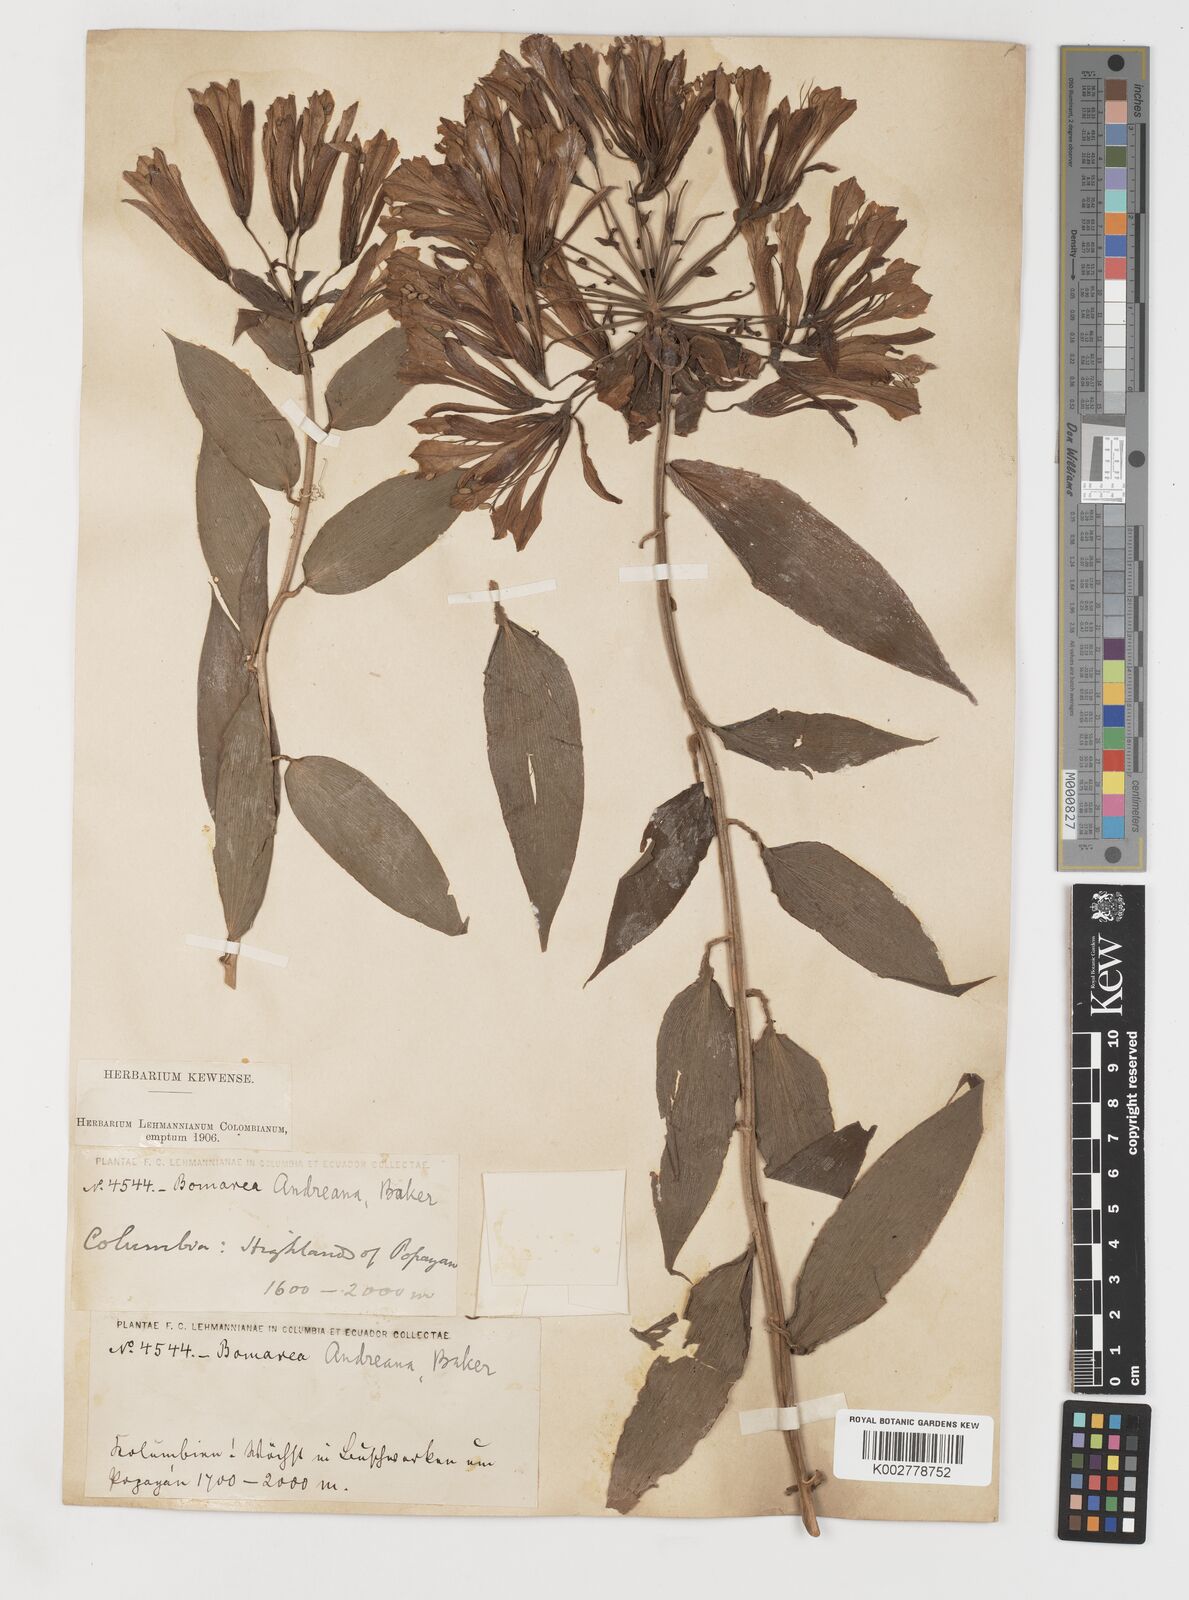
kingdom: Plantae
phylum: Tracheophyta
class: Liliopsida
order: Liliales
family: Alstroemeriaceae
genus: Bomarea
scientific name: Bomarea andreana
